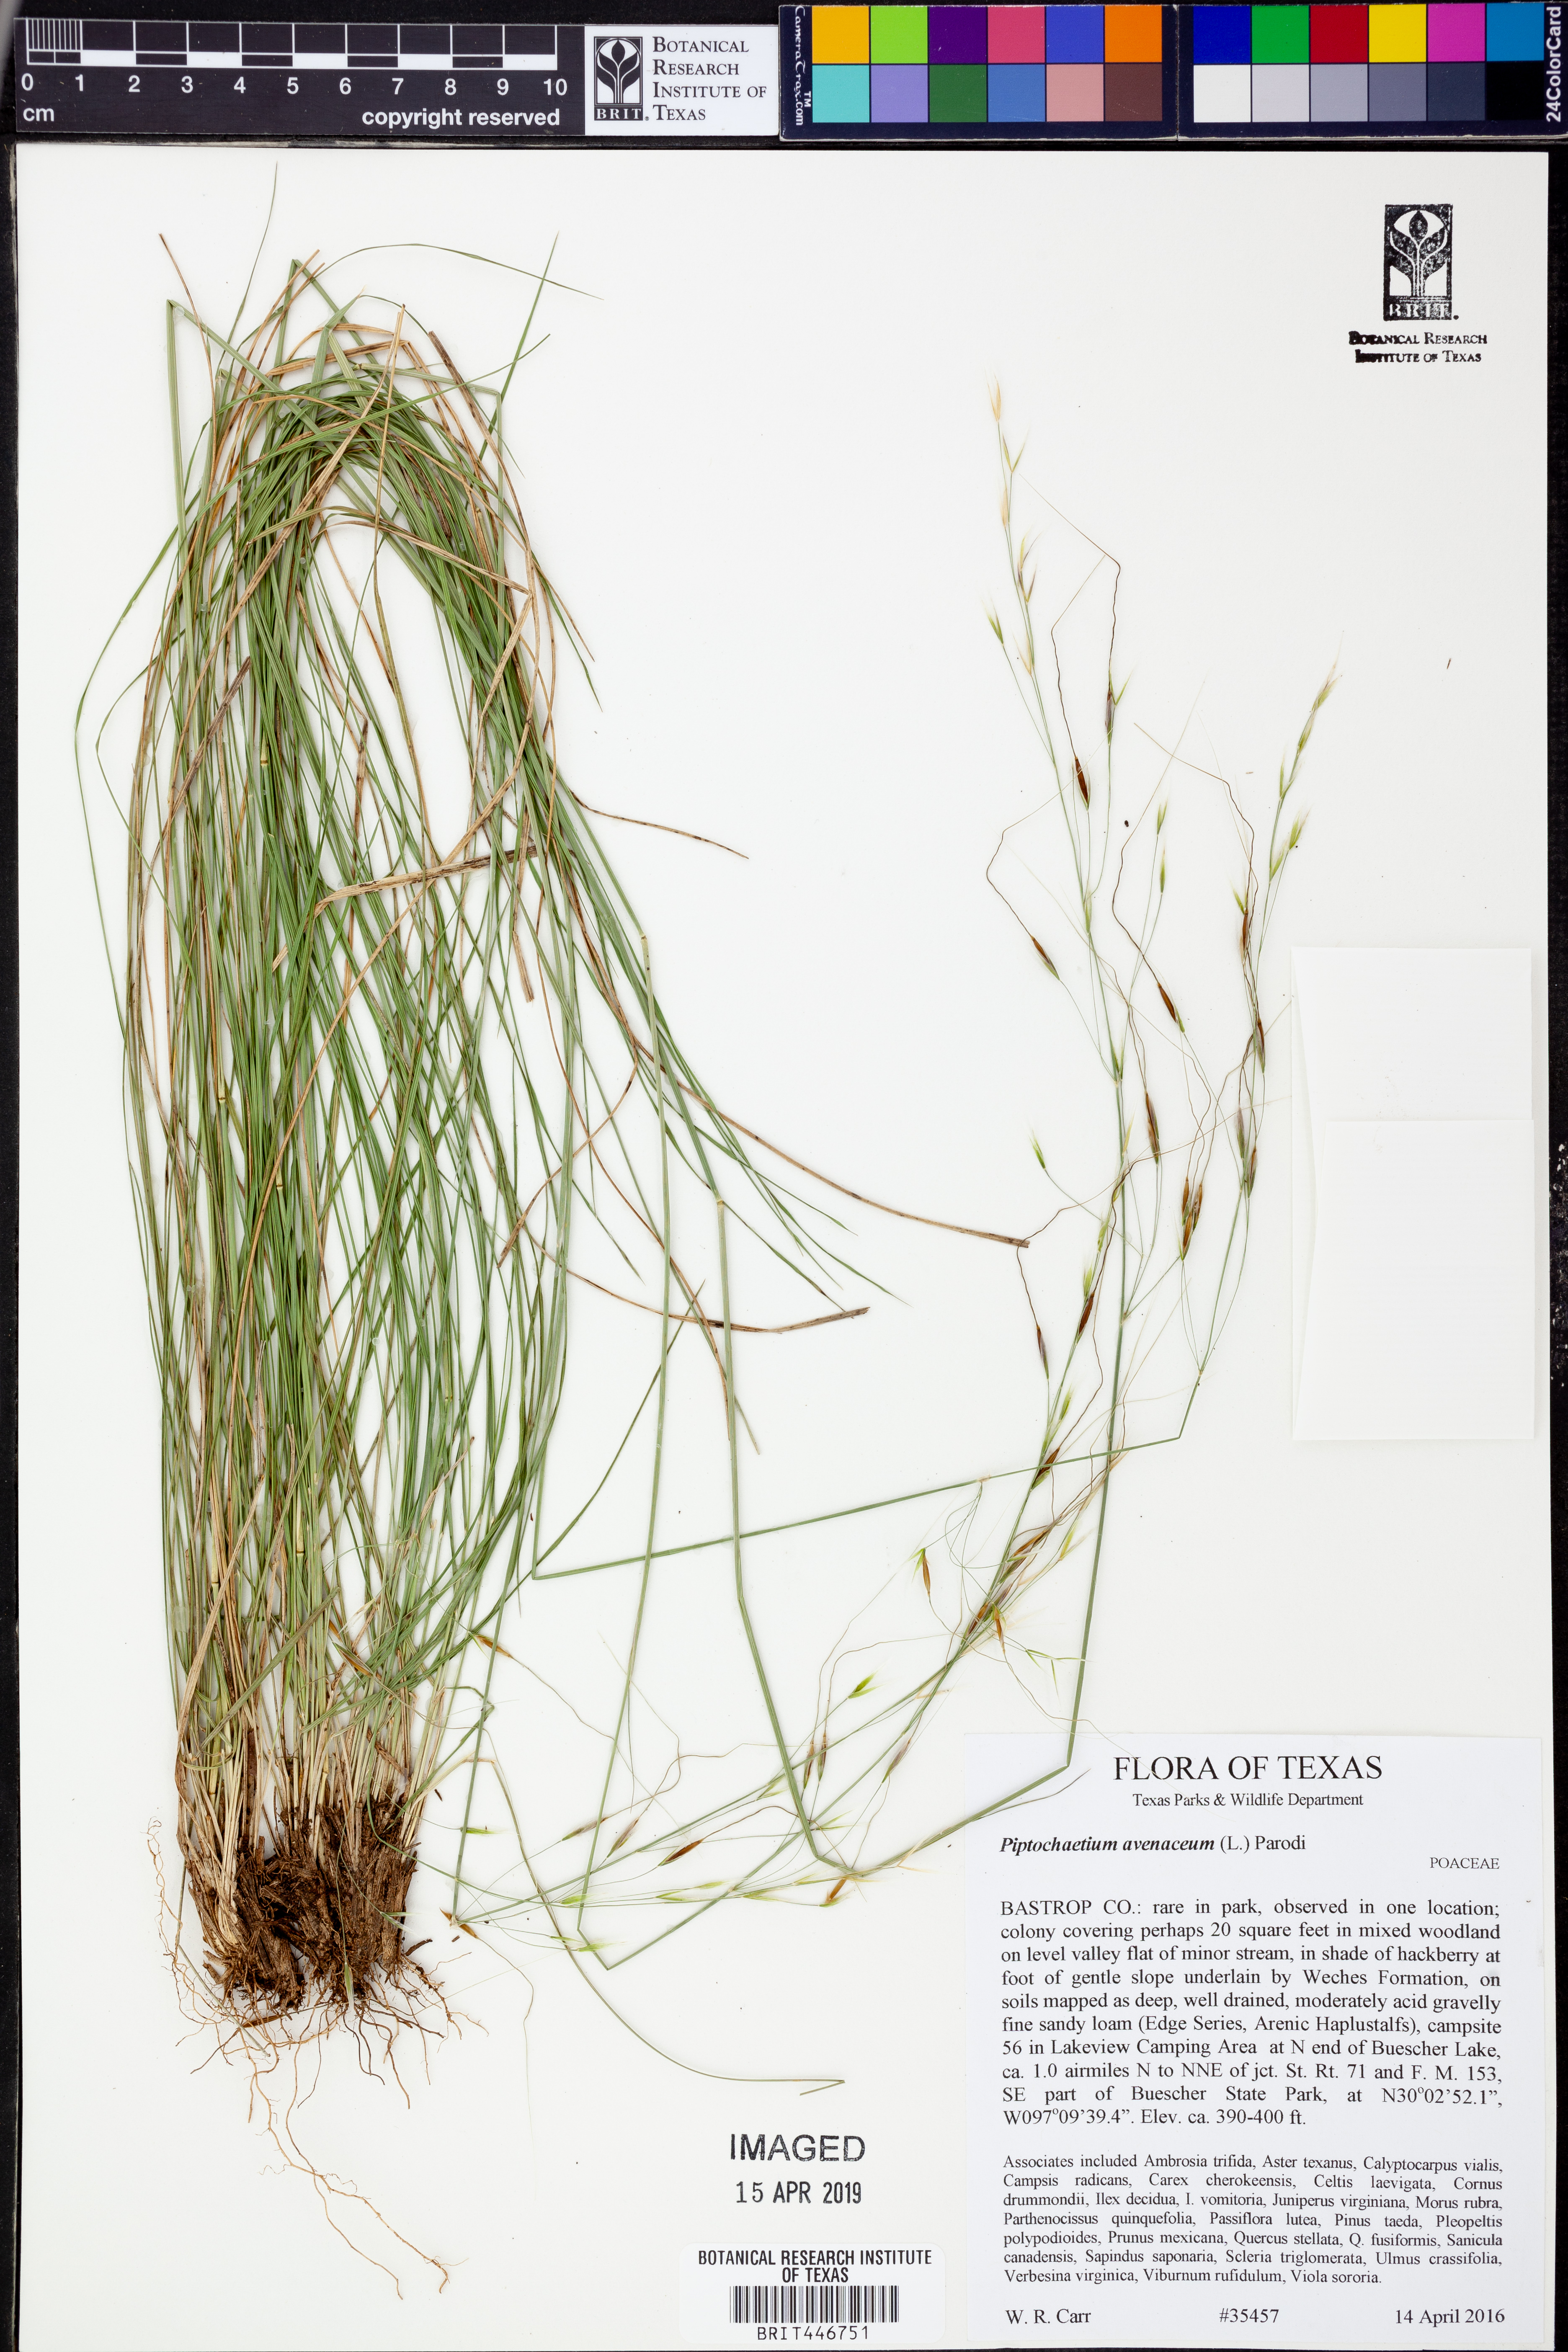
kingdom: Plantae
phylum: Tracheophyta
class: Liliopsida
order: Poales
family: Poaceae
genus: Dichanthelium
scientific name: Dichanthelium linearifolium
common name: Linear-leaved panicgrass
